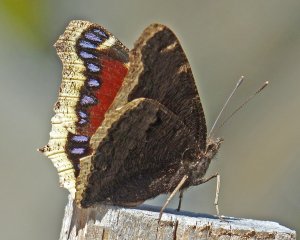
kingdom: Animalia
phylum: Arthropoda
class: Insecta
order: Lepidoptera
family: Nymphalidae
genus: Nymphalis
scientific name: Nymphalis antiopa
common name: Mourning Cloak
